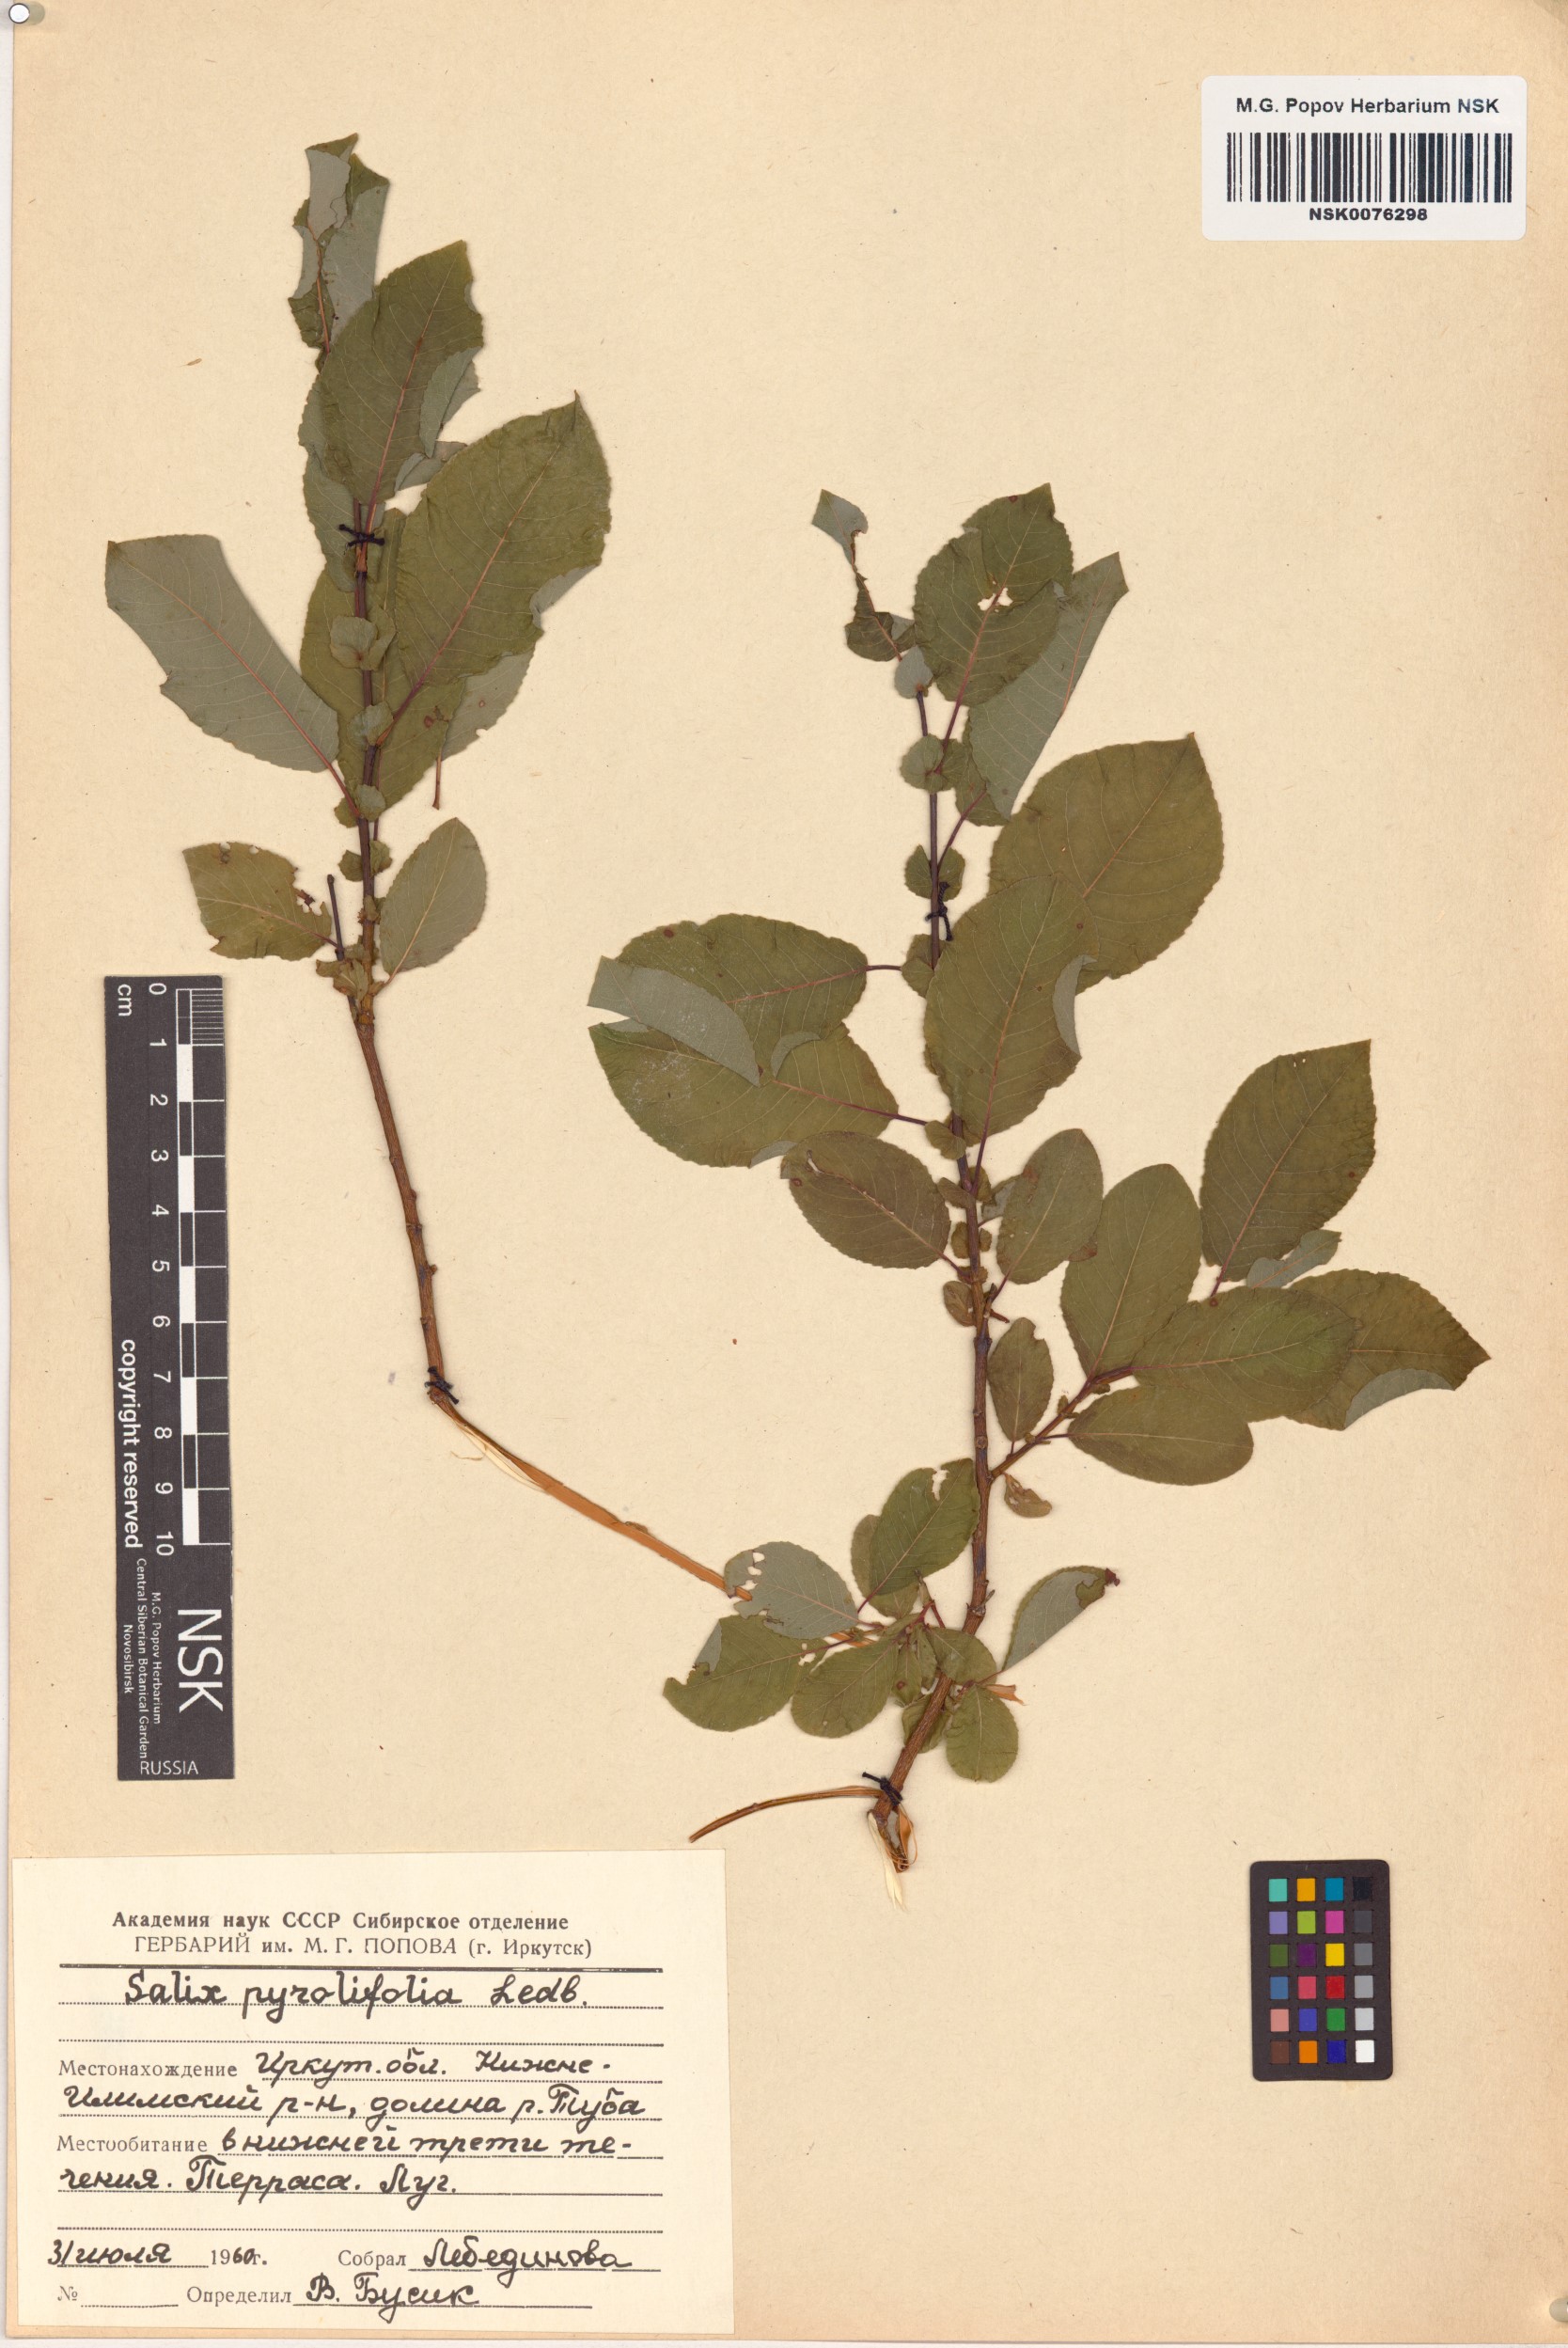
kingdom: Plantae
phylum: Tracheophyta
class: Magnoliopsida
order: Malpighiales
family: Salicaceae
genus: Salix
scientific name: Salix pyrolifolia
